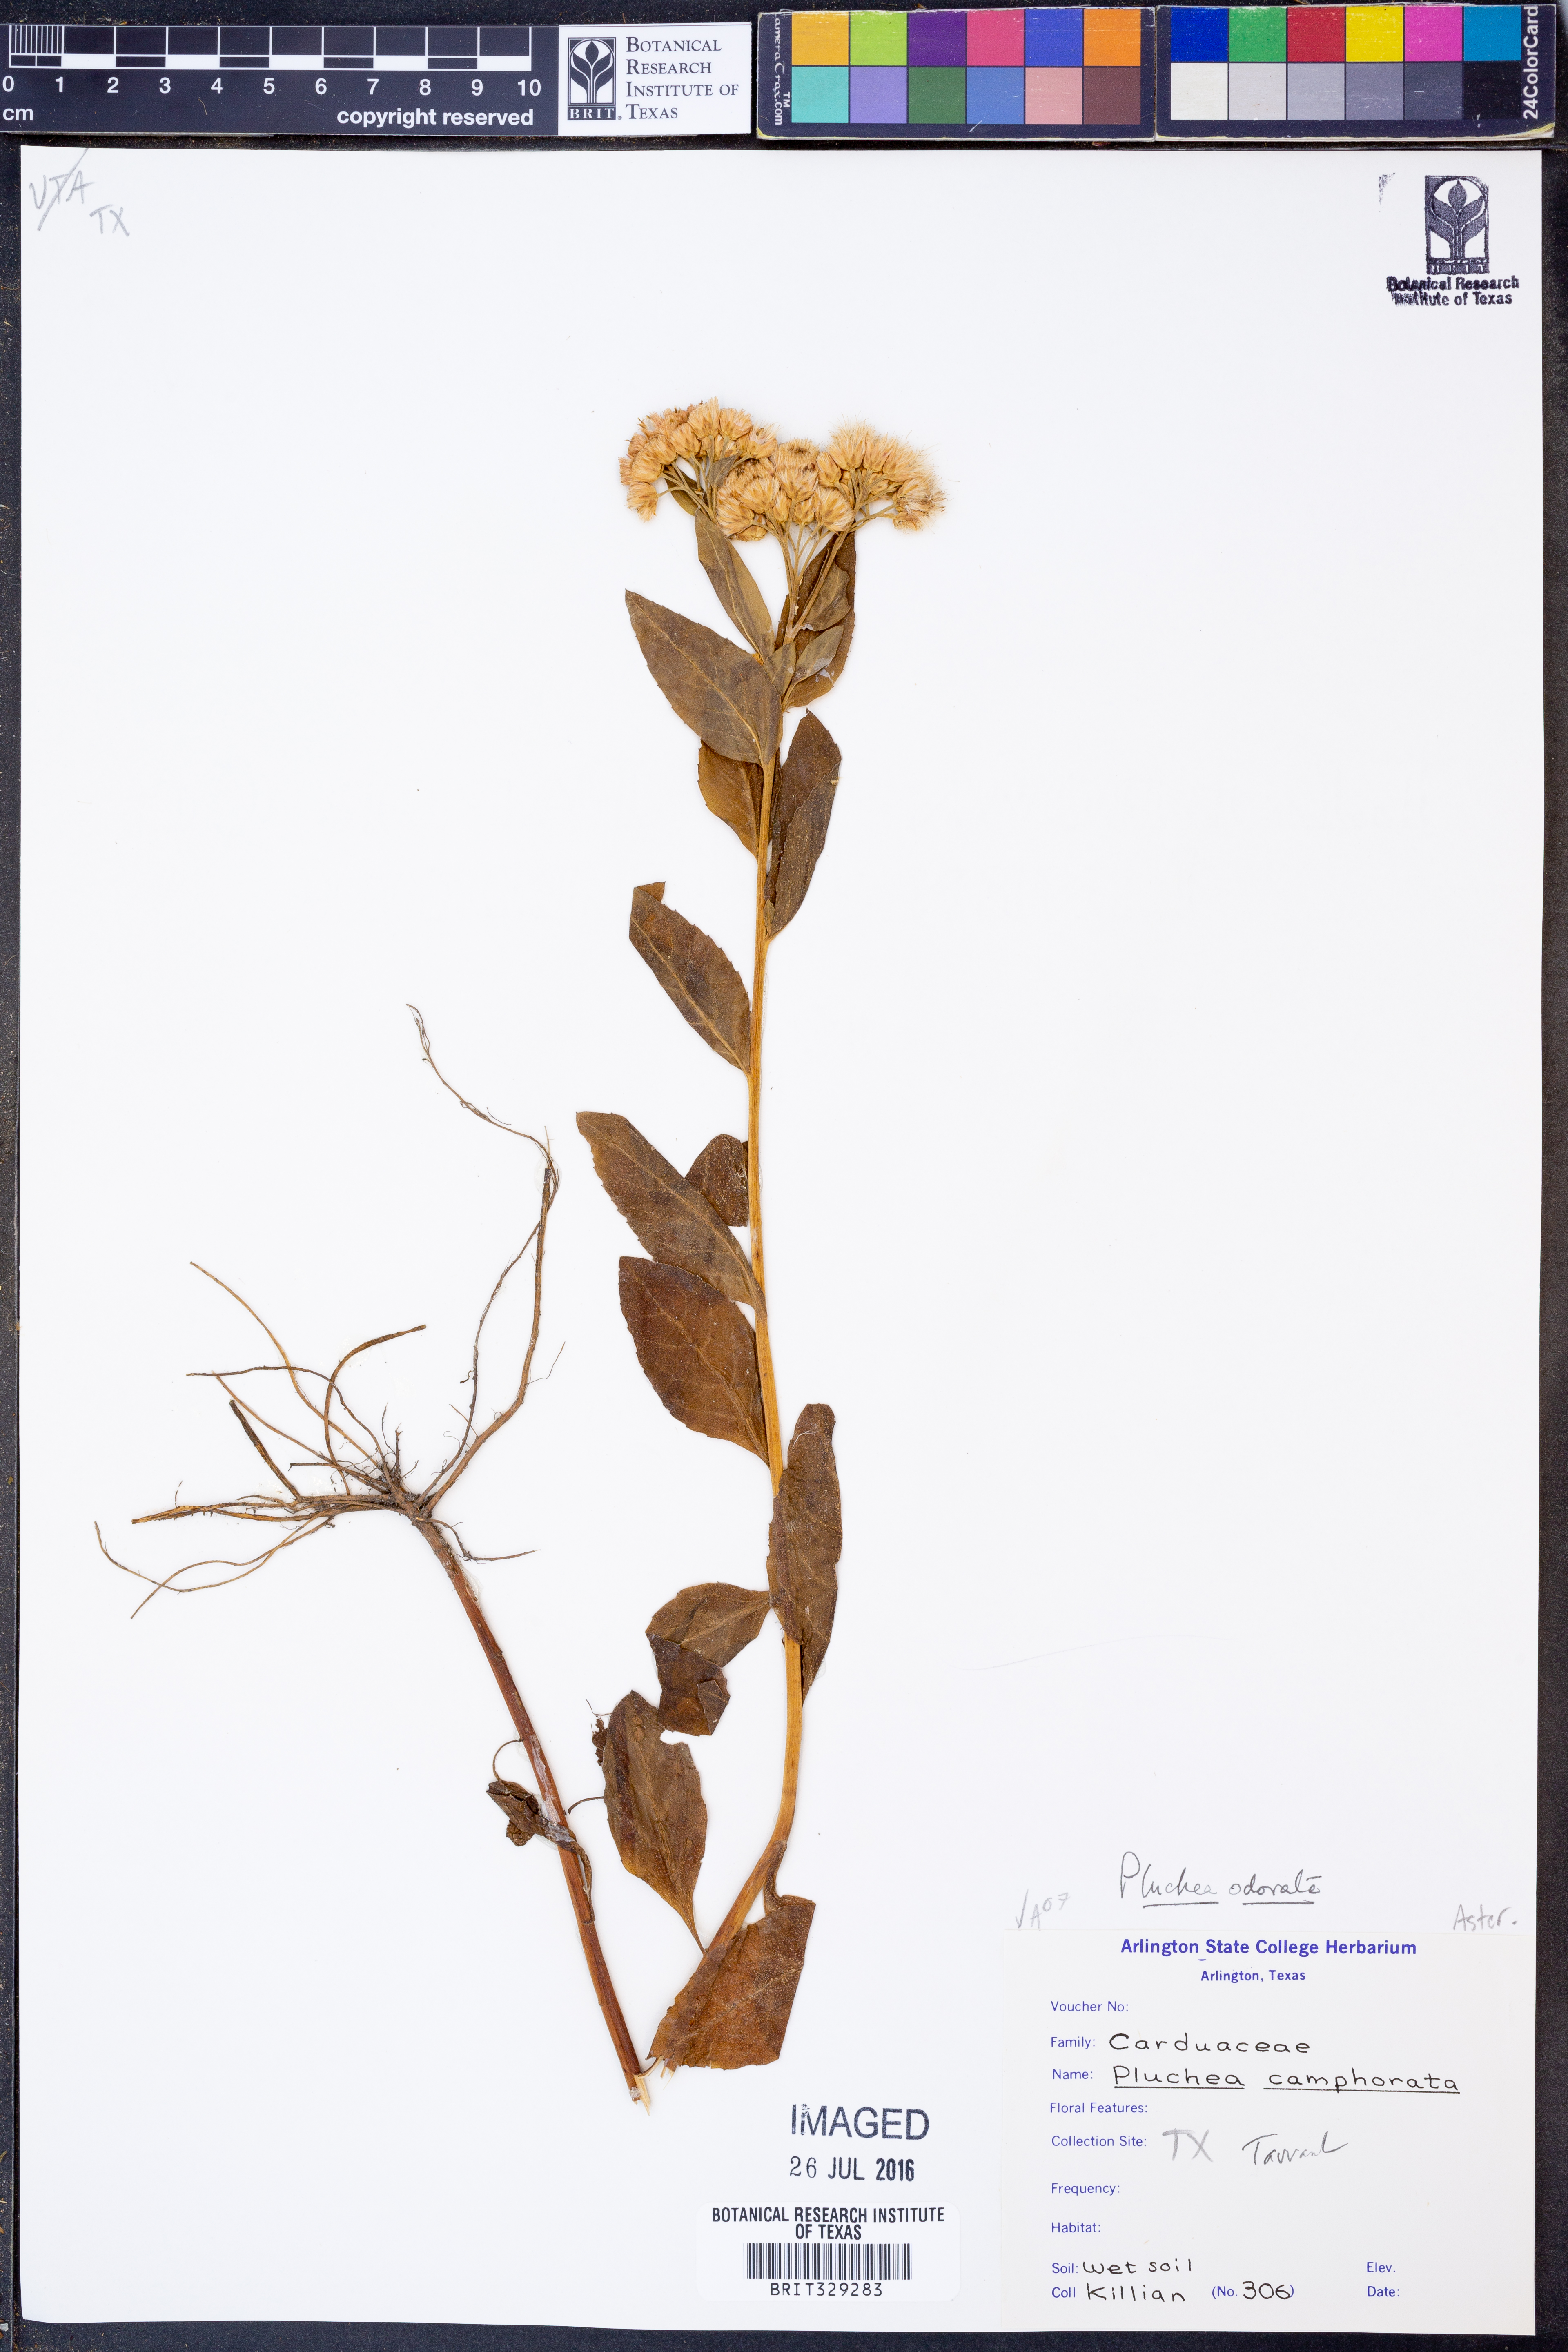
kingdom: Plantae
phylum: Tracheophyta
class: Magnoliopsida
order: Asterales
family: Asteraceae
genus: Pluchea
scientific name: Pluchea odorata
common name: Saltmarsh fleabane
